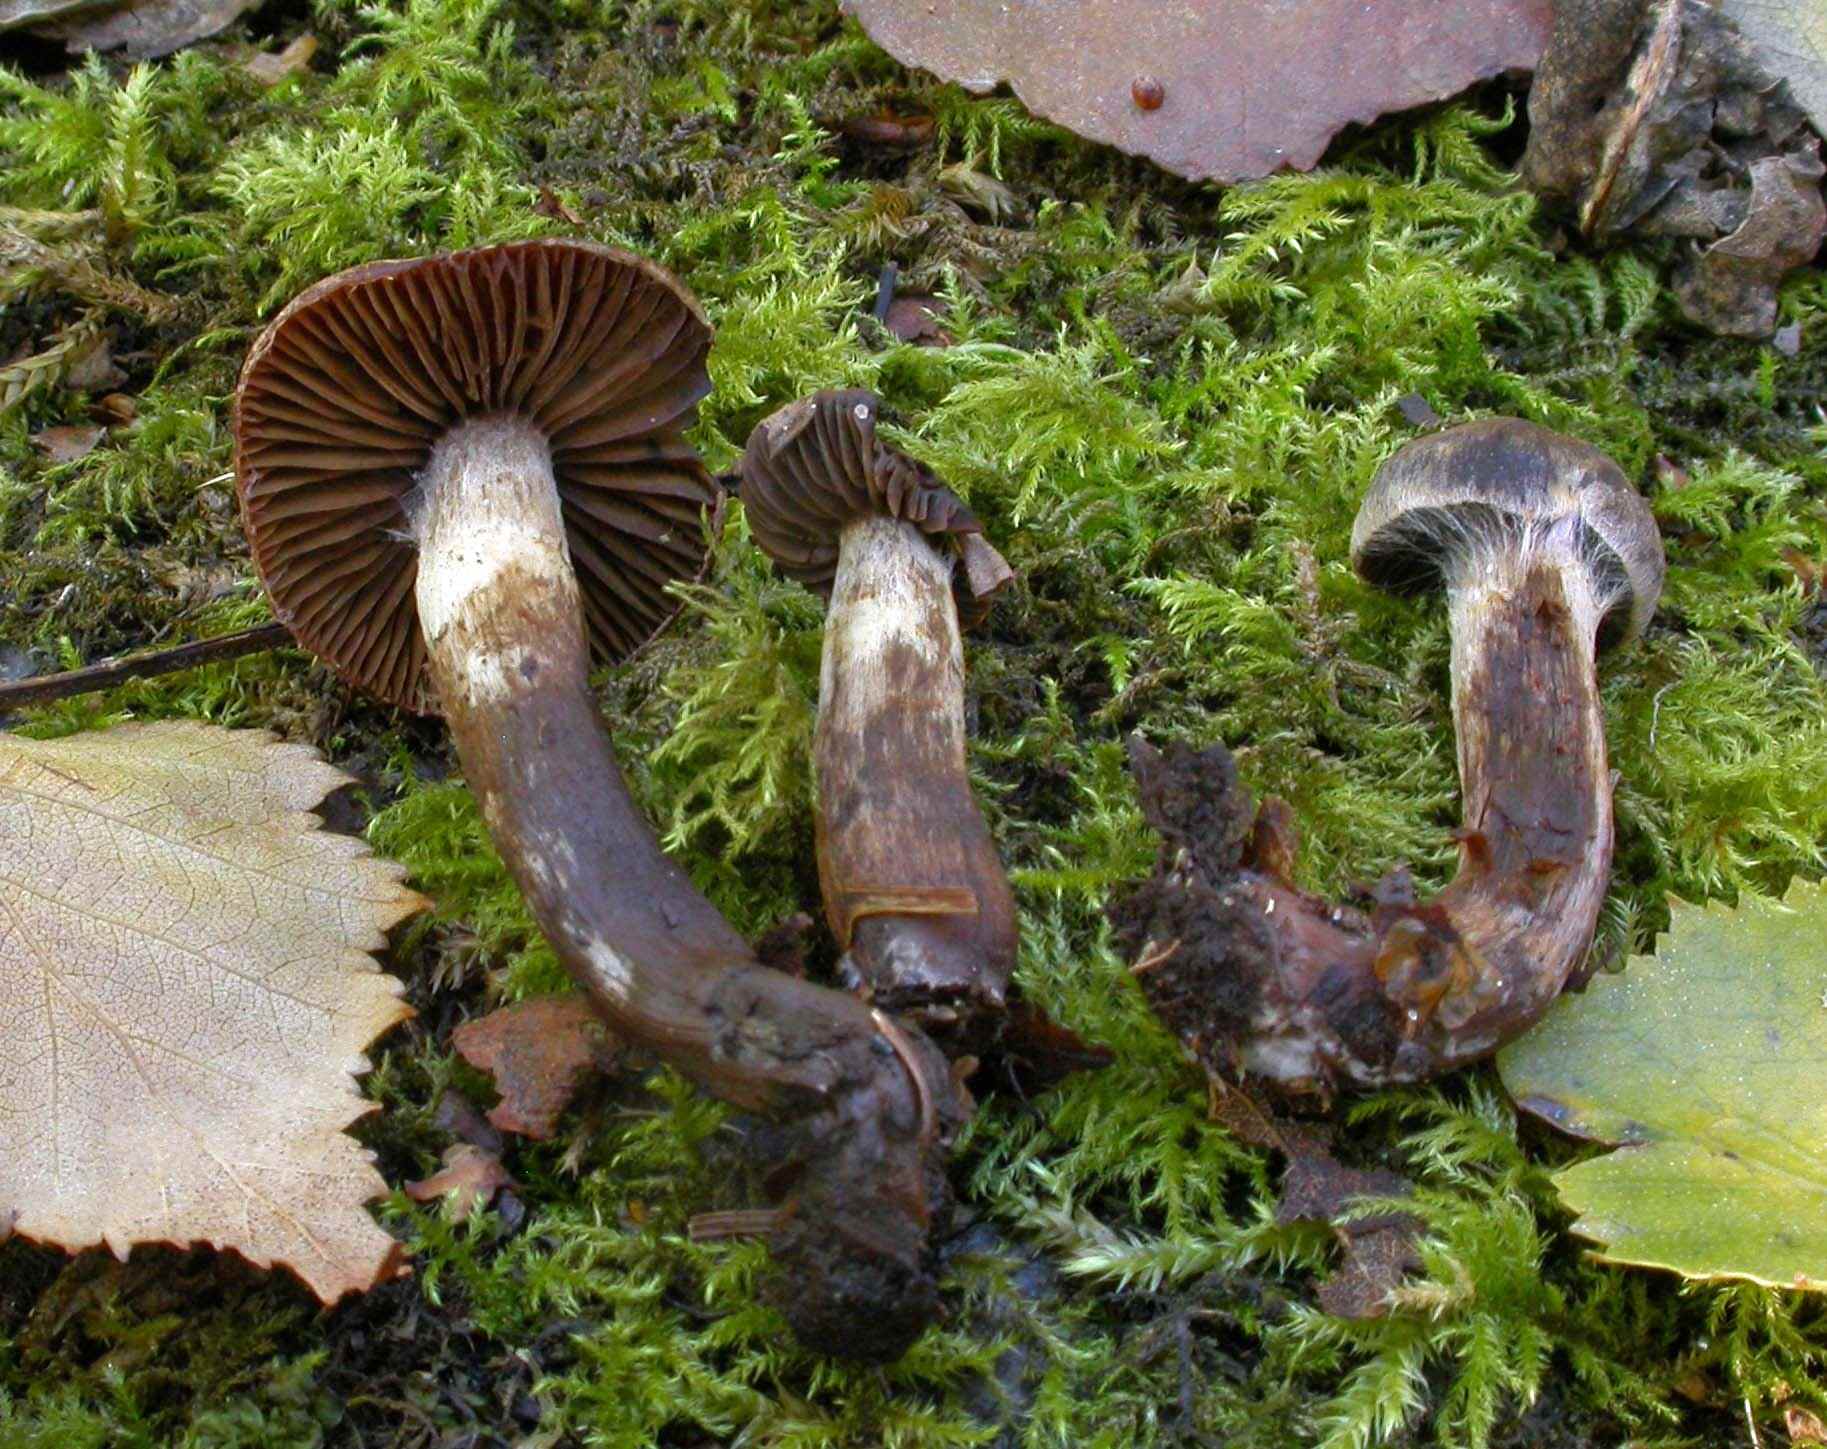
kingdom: Fungi
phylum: Basidiomycota
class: Agaricomycetes
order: Agaricales
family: Cortinariaceae
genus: Cortinarius
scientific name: Cortinarius umbrinolens
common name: mørk slørhat
